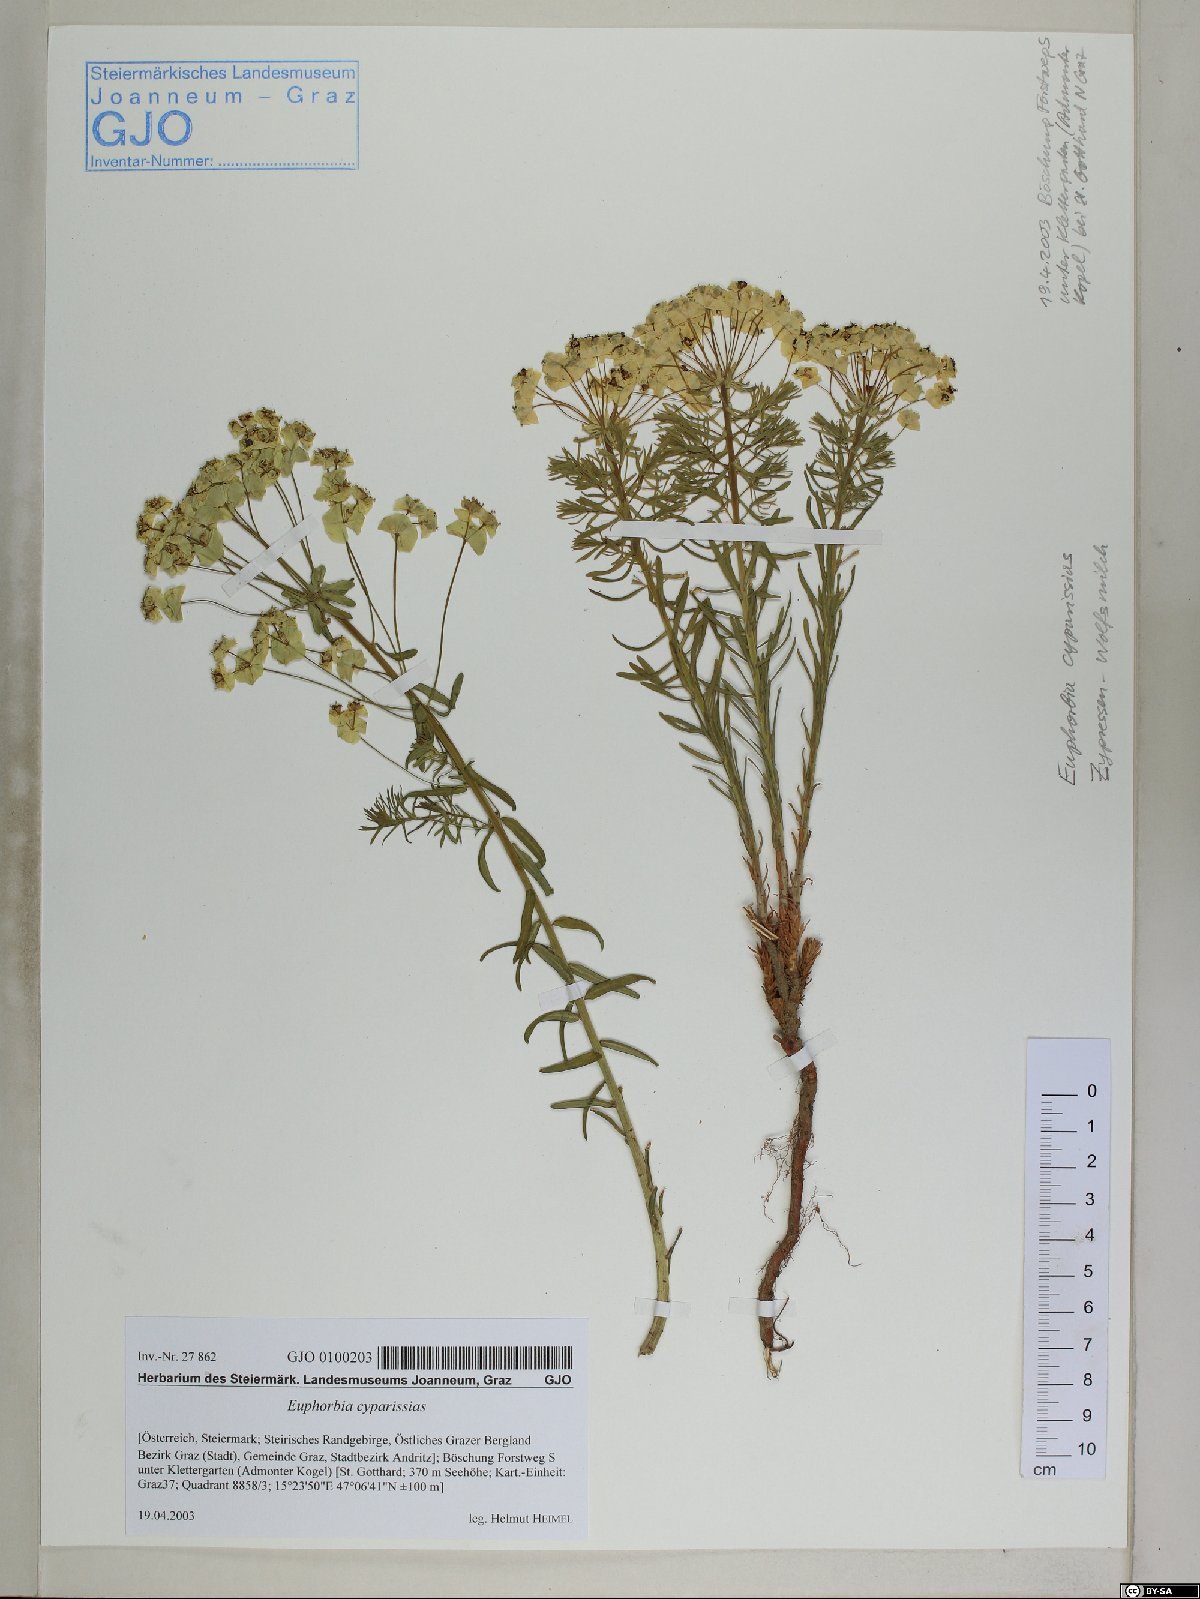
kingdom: Plantae
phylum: Tracheophyta
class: Magnoliopsida
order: Malpighiales
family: Euphorbiaceae
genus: Euphorbia
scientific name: Euphorbia cyparissias
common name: Cypress spurge
